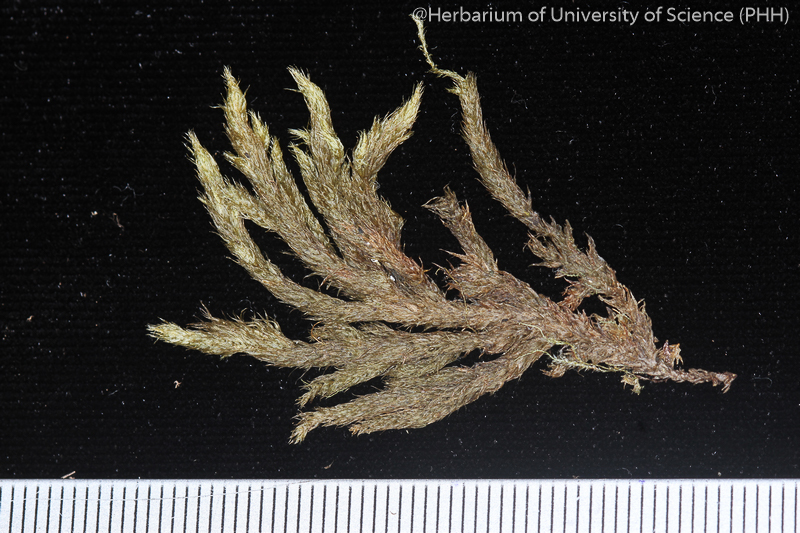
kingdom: Plantae
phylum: Bryophyta
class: Bryopsida
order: Hypnales
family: Neckeraceae
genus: Porotrichum
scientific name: Porotrichum
